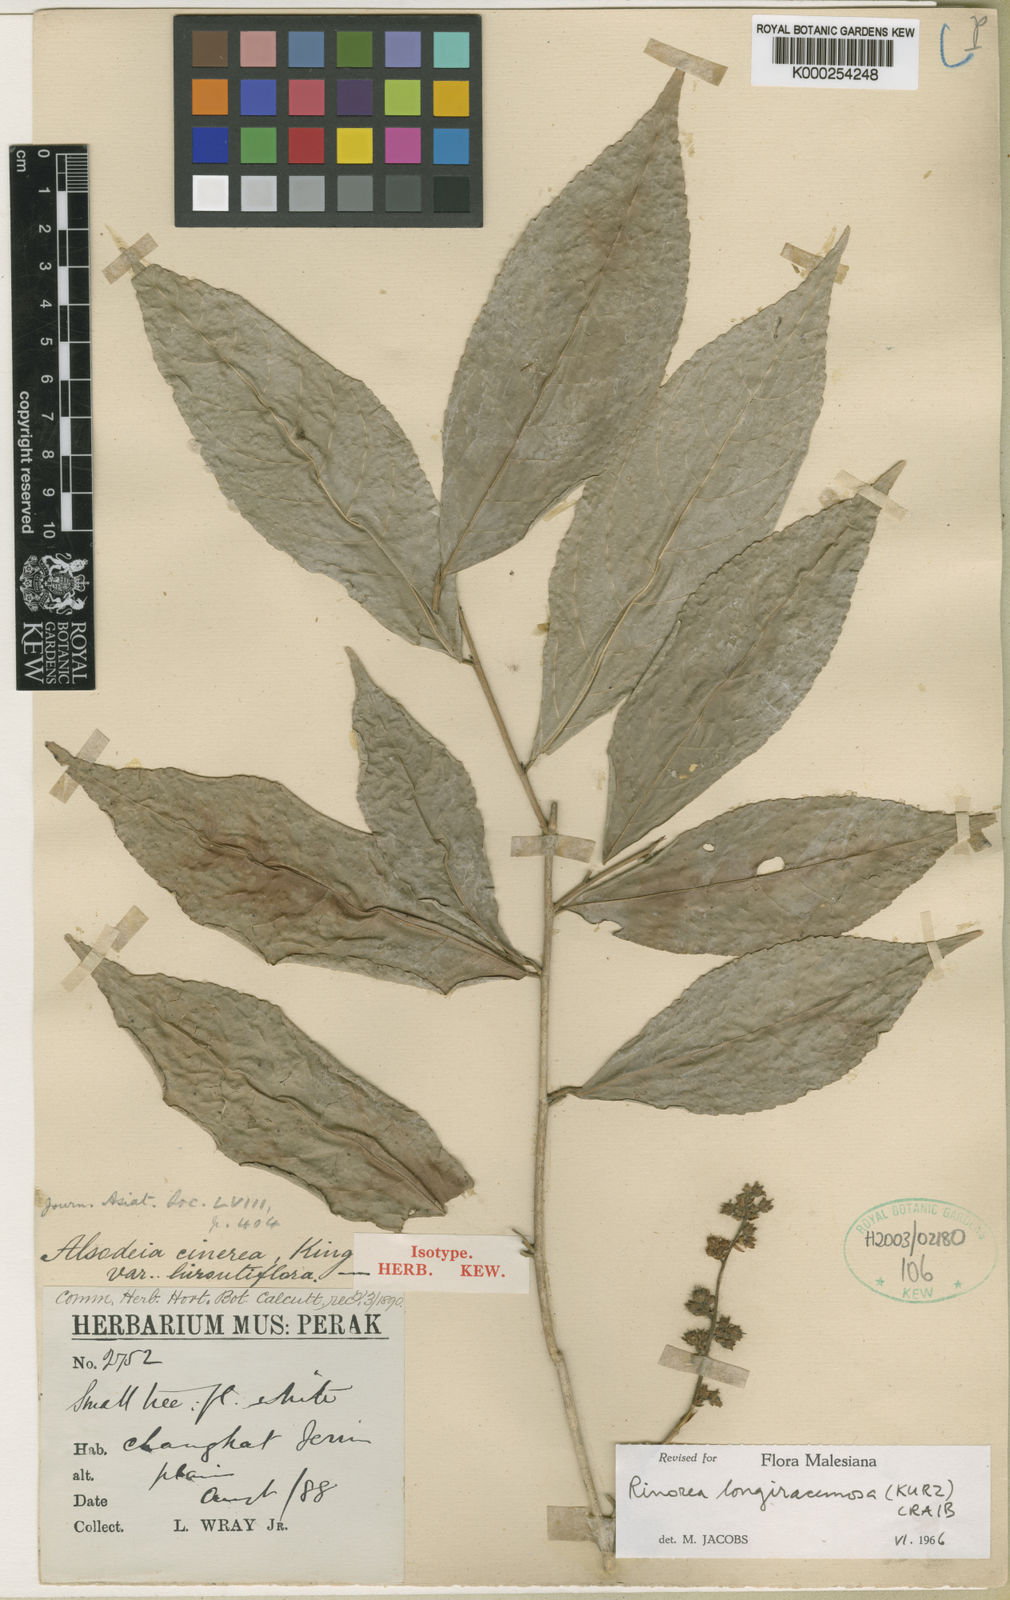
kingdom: Plantae
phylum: Tracheophyta
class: Magnoliopsida
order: Malpighiales
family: Violaceae
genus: Viola
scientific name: Viola cinerea
